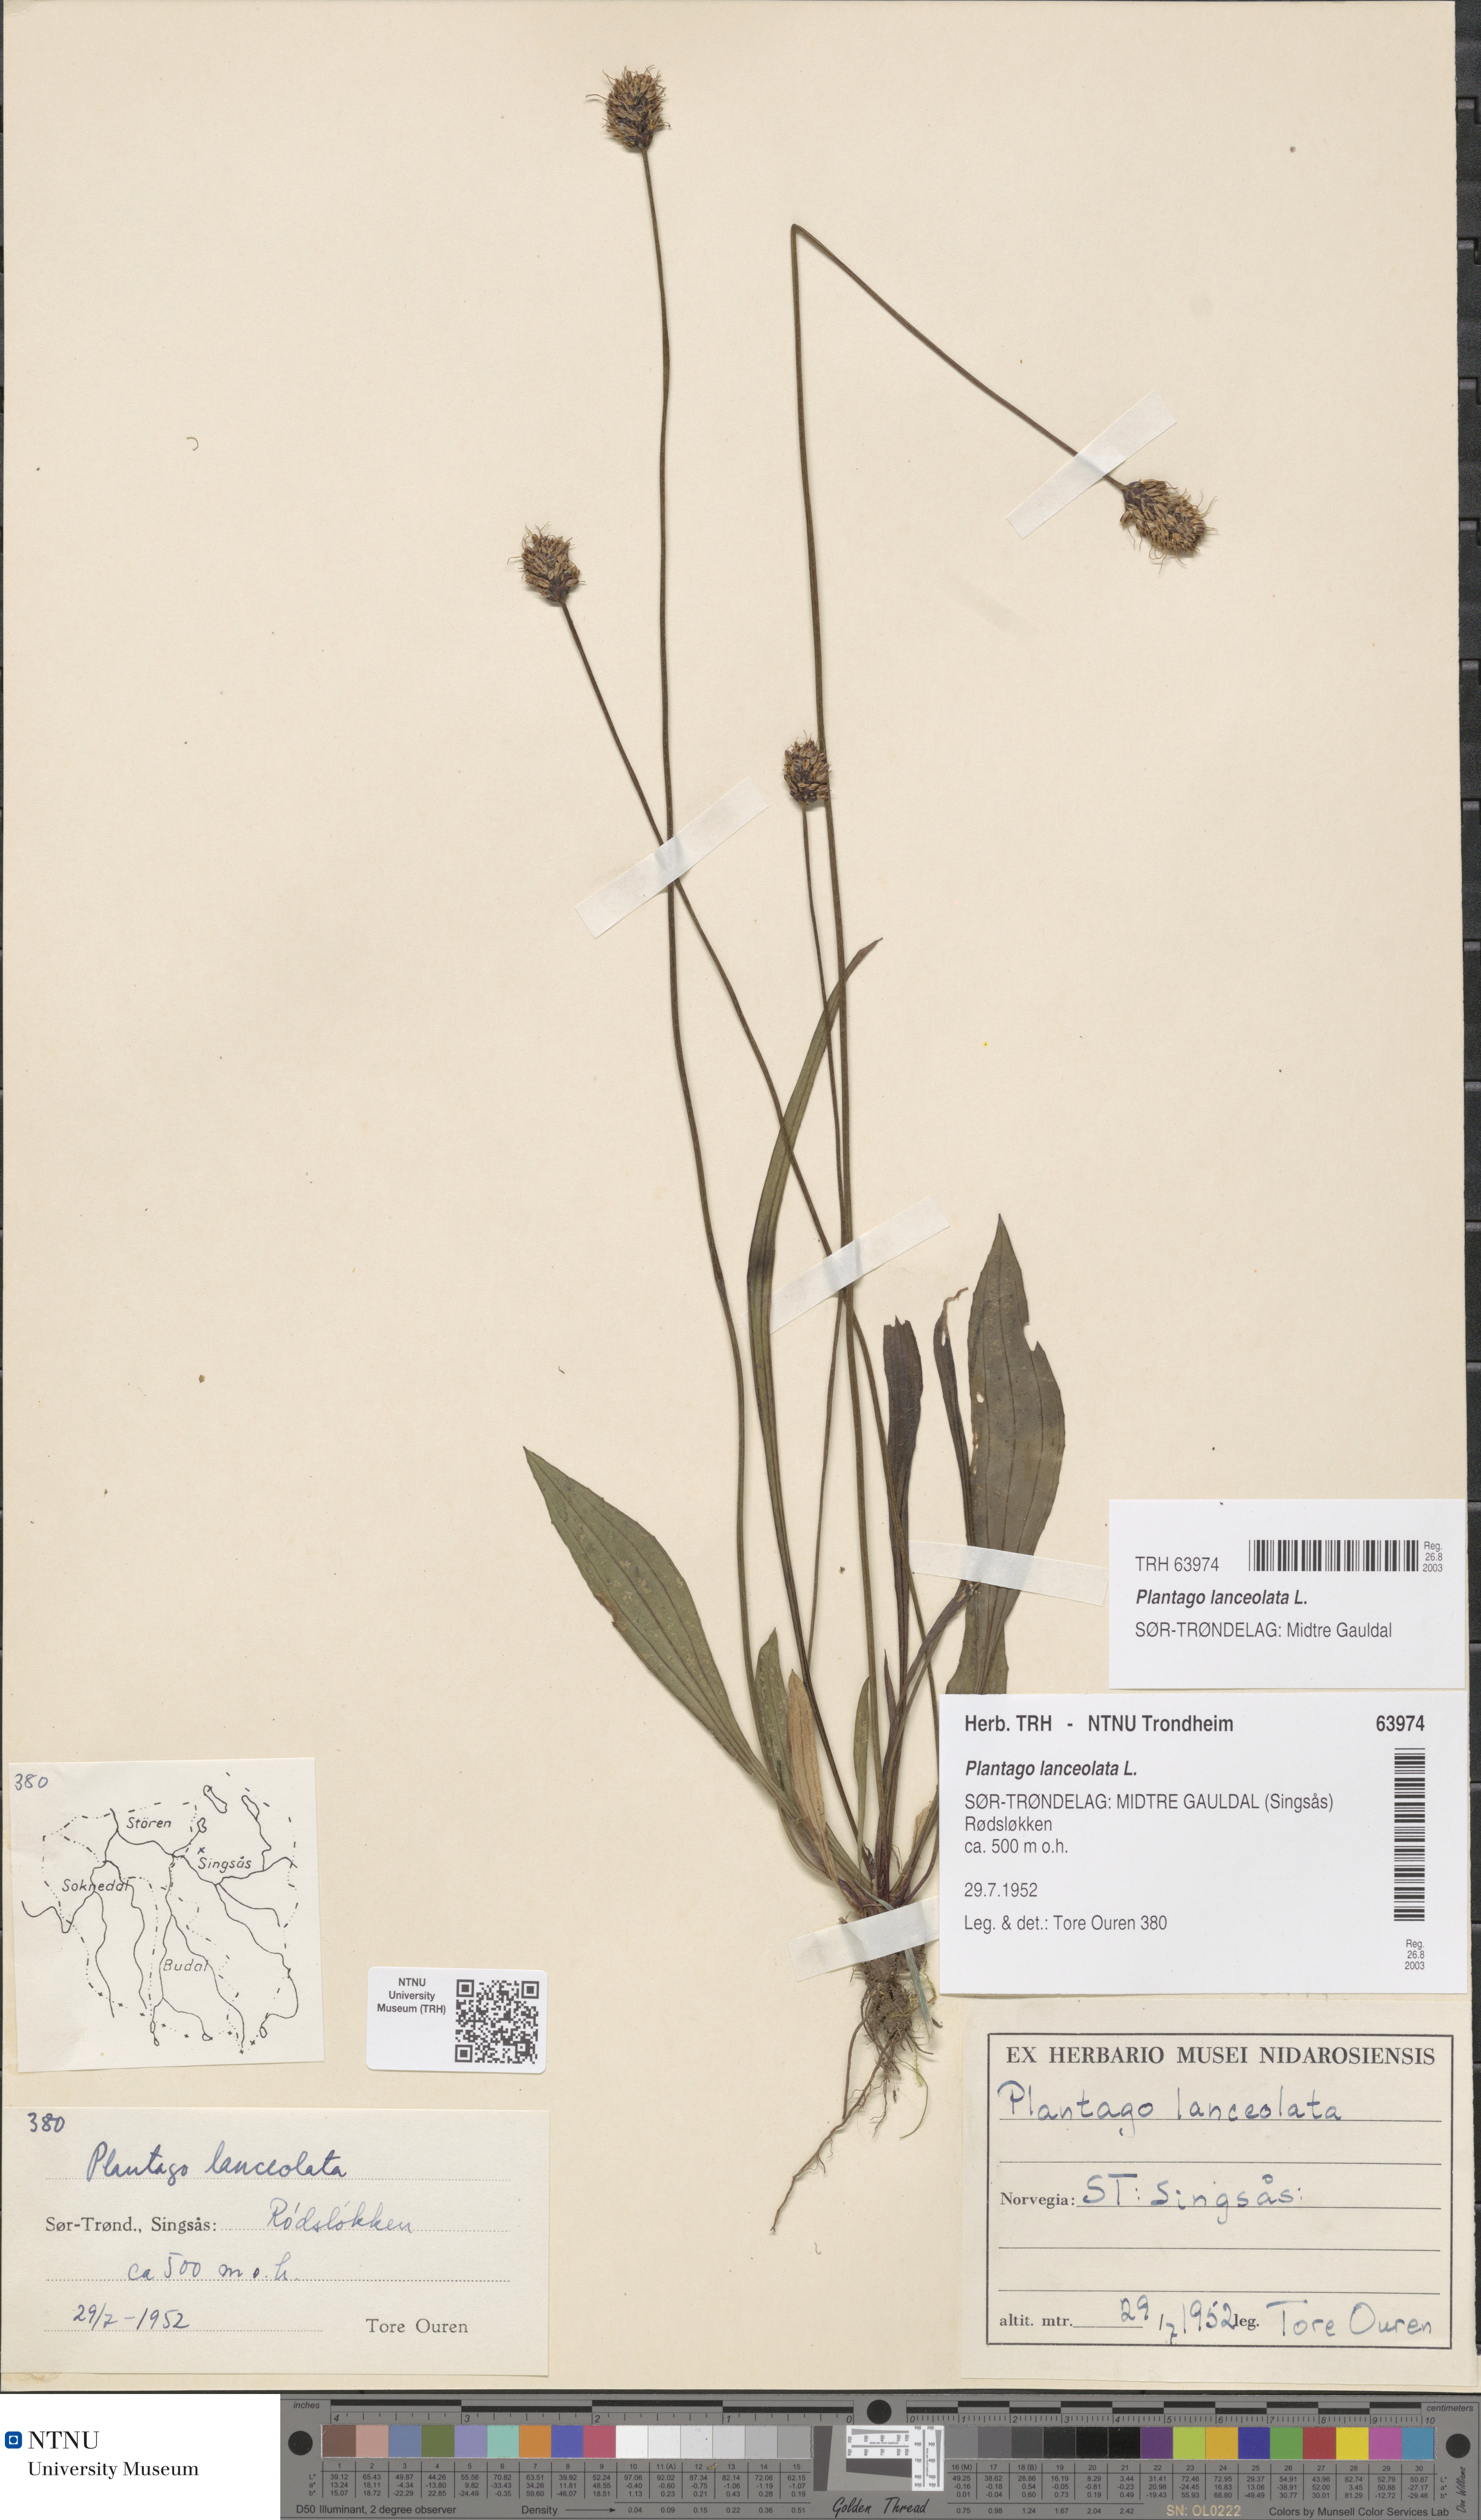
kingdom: Plantae
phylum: Tracheophyta
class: Magnoliopsida
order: Lamiales
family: Plantaginaceae
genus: Plantago
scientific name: Plantago lanceolata
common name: Ribwort plantain
